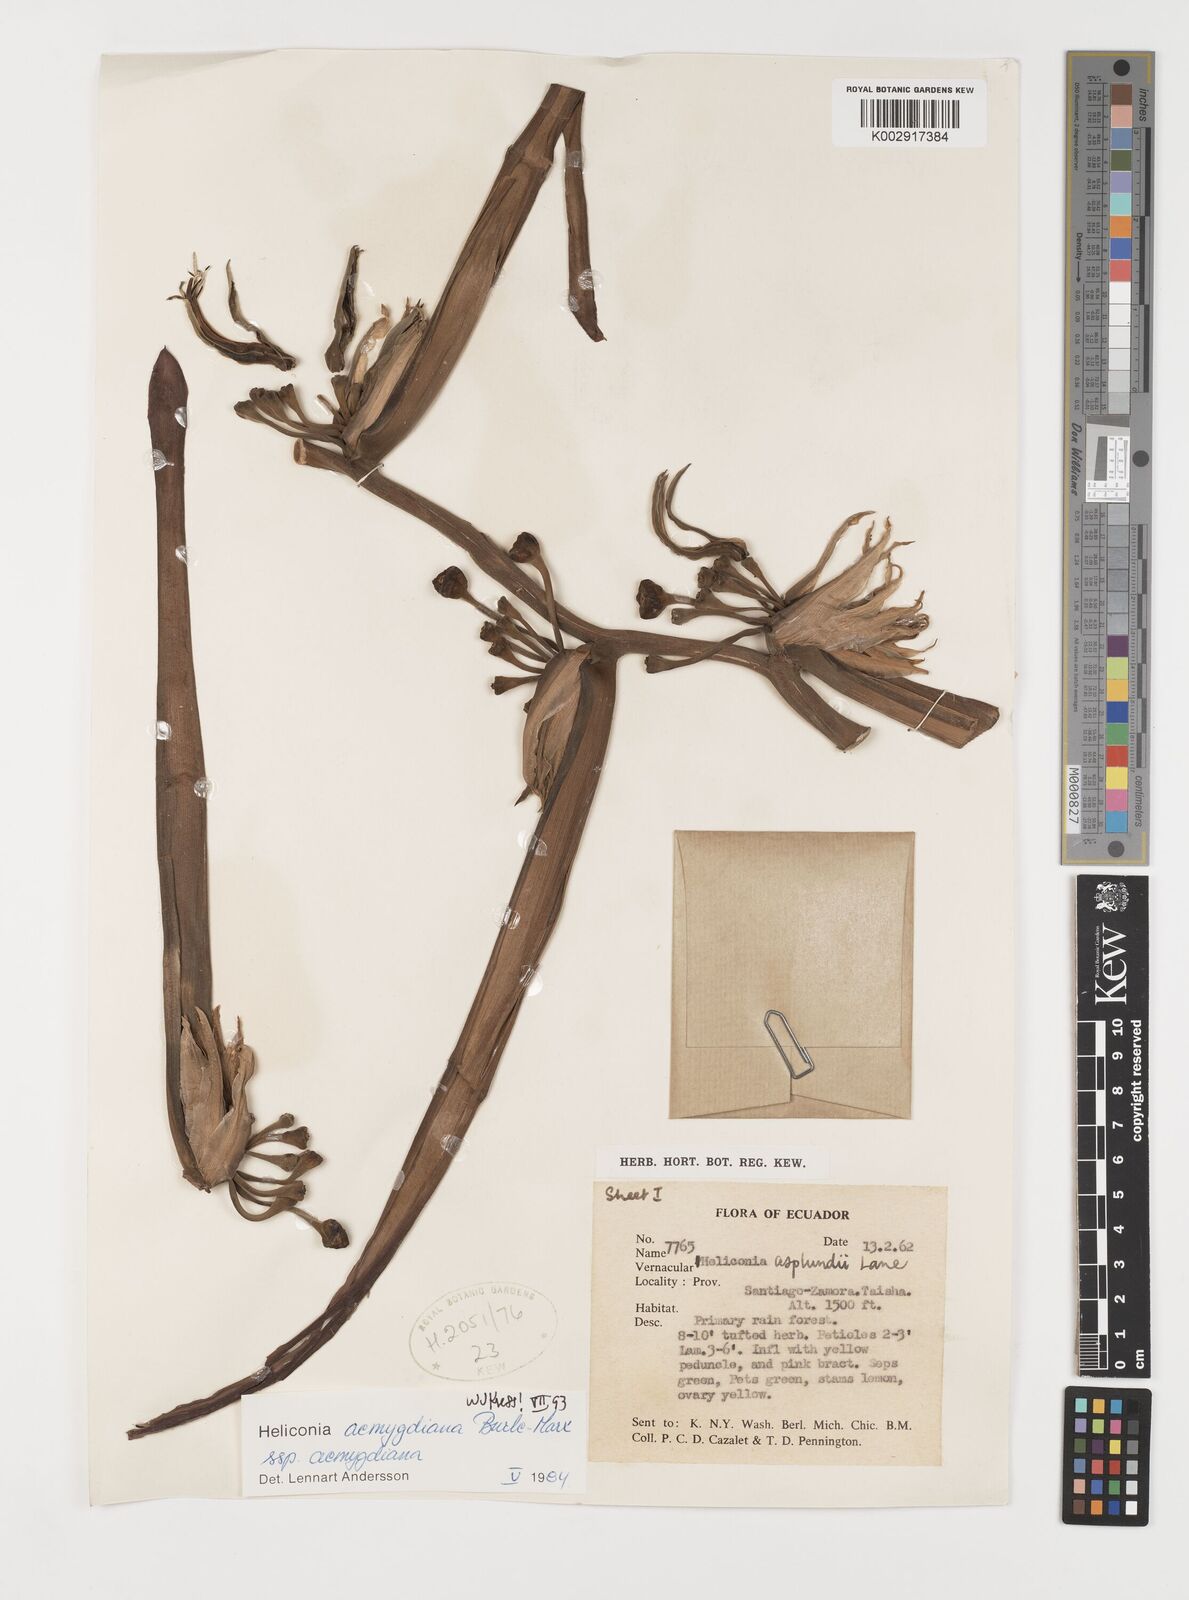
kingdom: Plantae
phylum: Tracheophyta
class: Liliopsida
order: Zingiberales
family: Heliconiaceae
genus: Heliconia
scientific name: Heliconia aemygdiana
